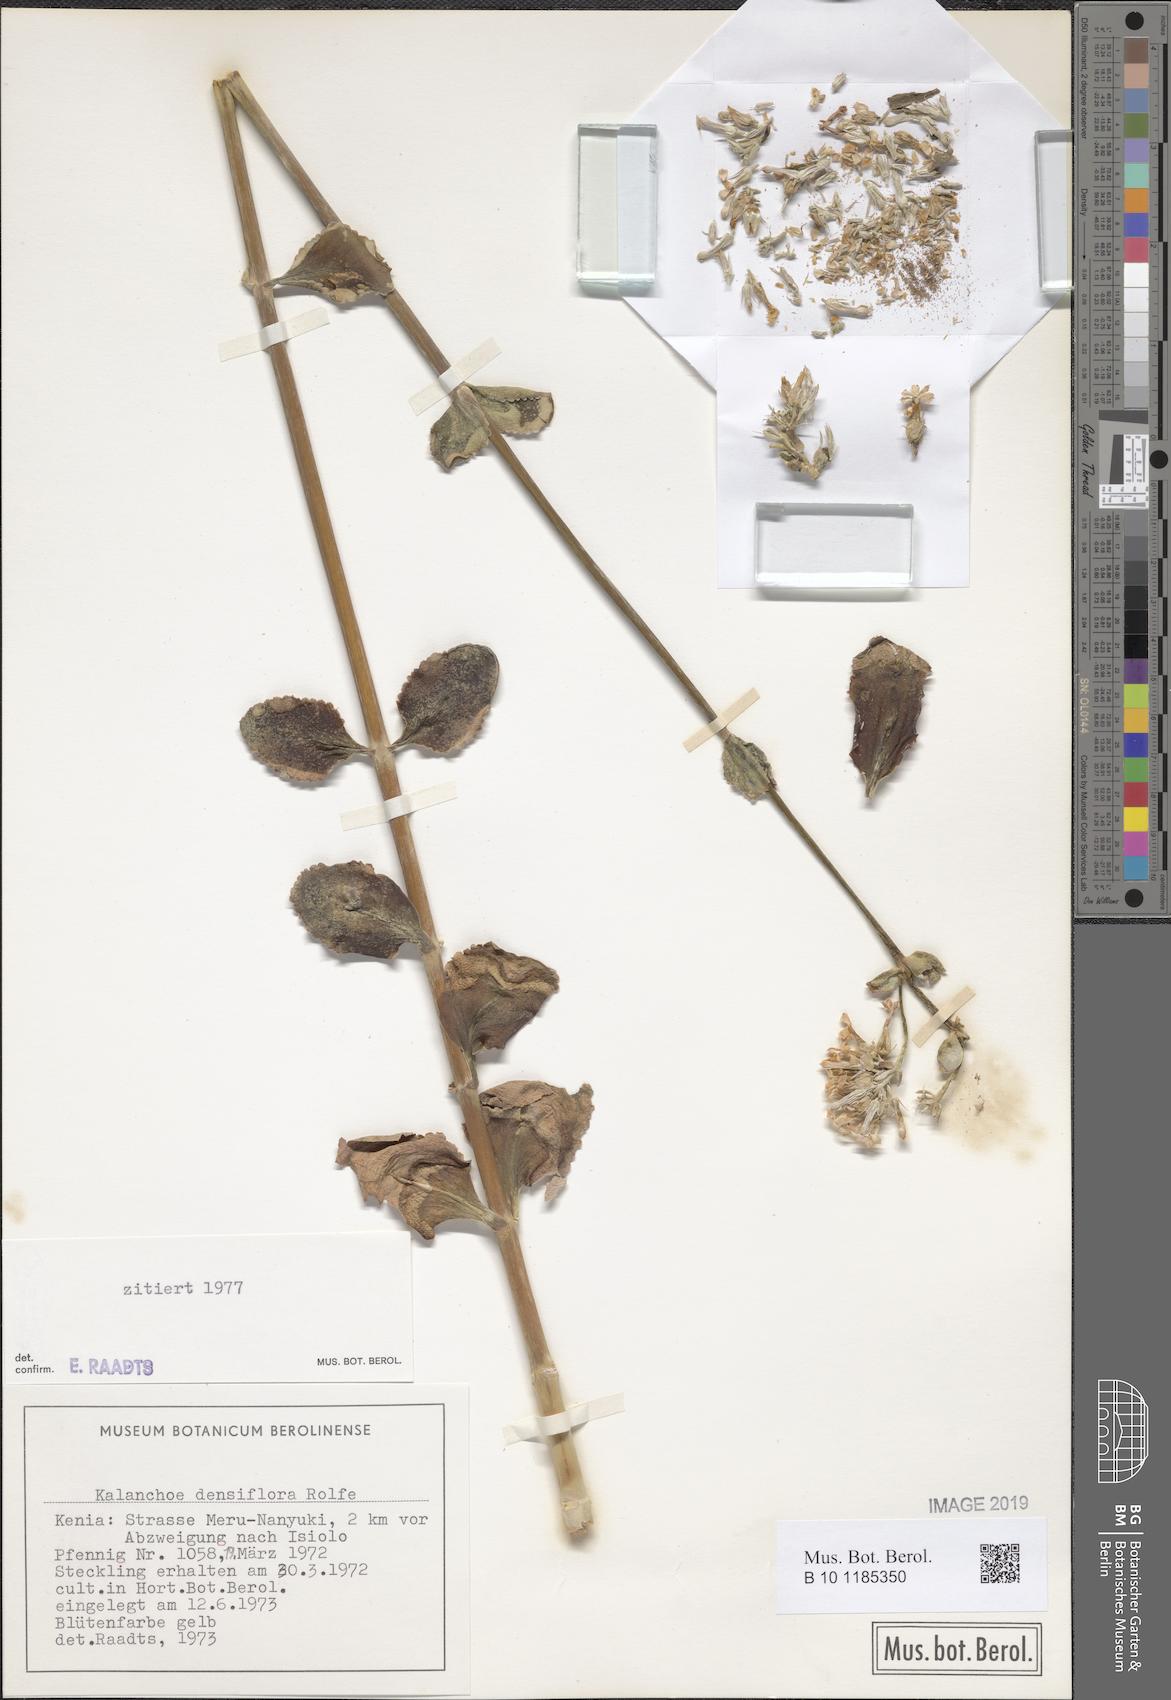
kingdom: Plantae
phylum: Tracheophyta
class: Magnoliopsida
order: Saxifragales
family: Crassulaceae
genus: Kalanchoe
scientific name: Kalanchoe densiflora
